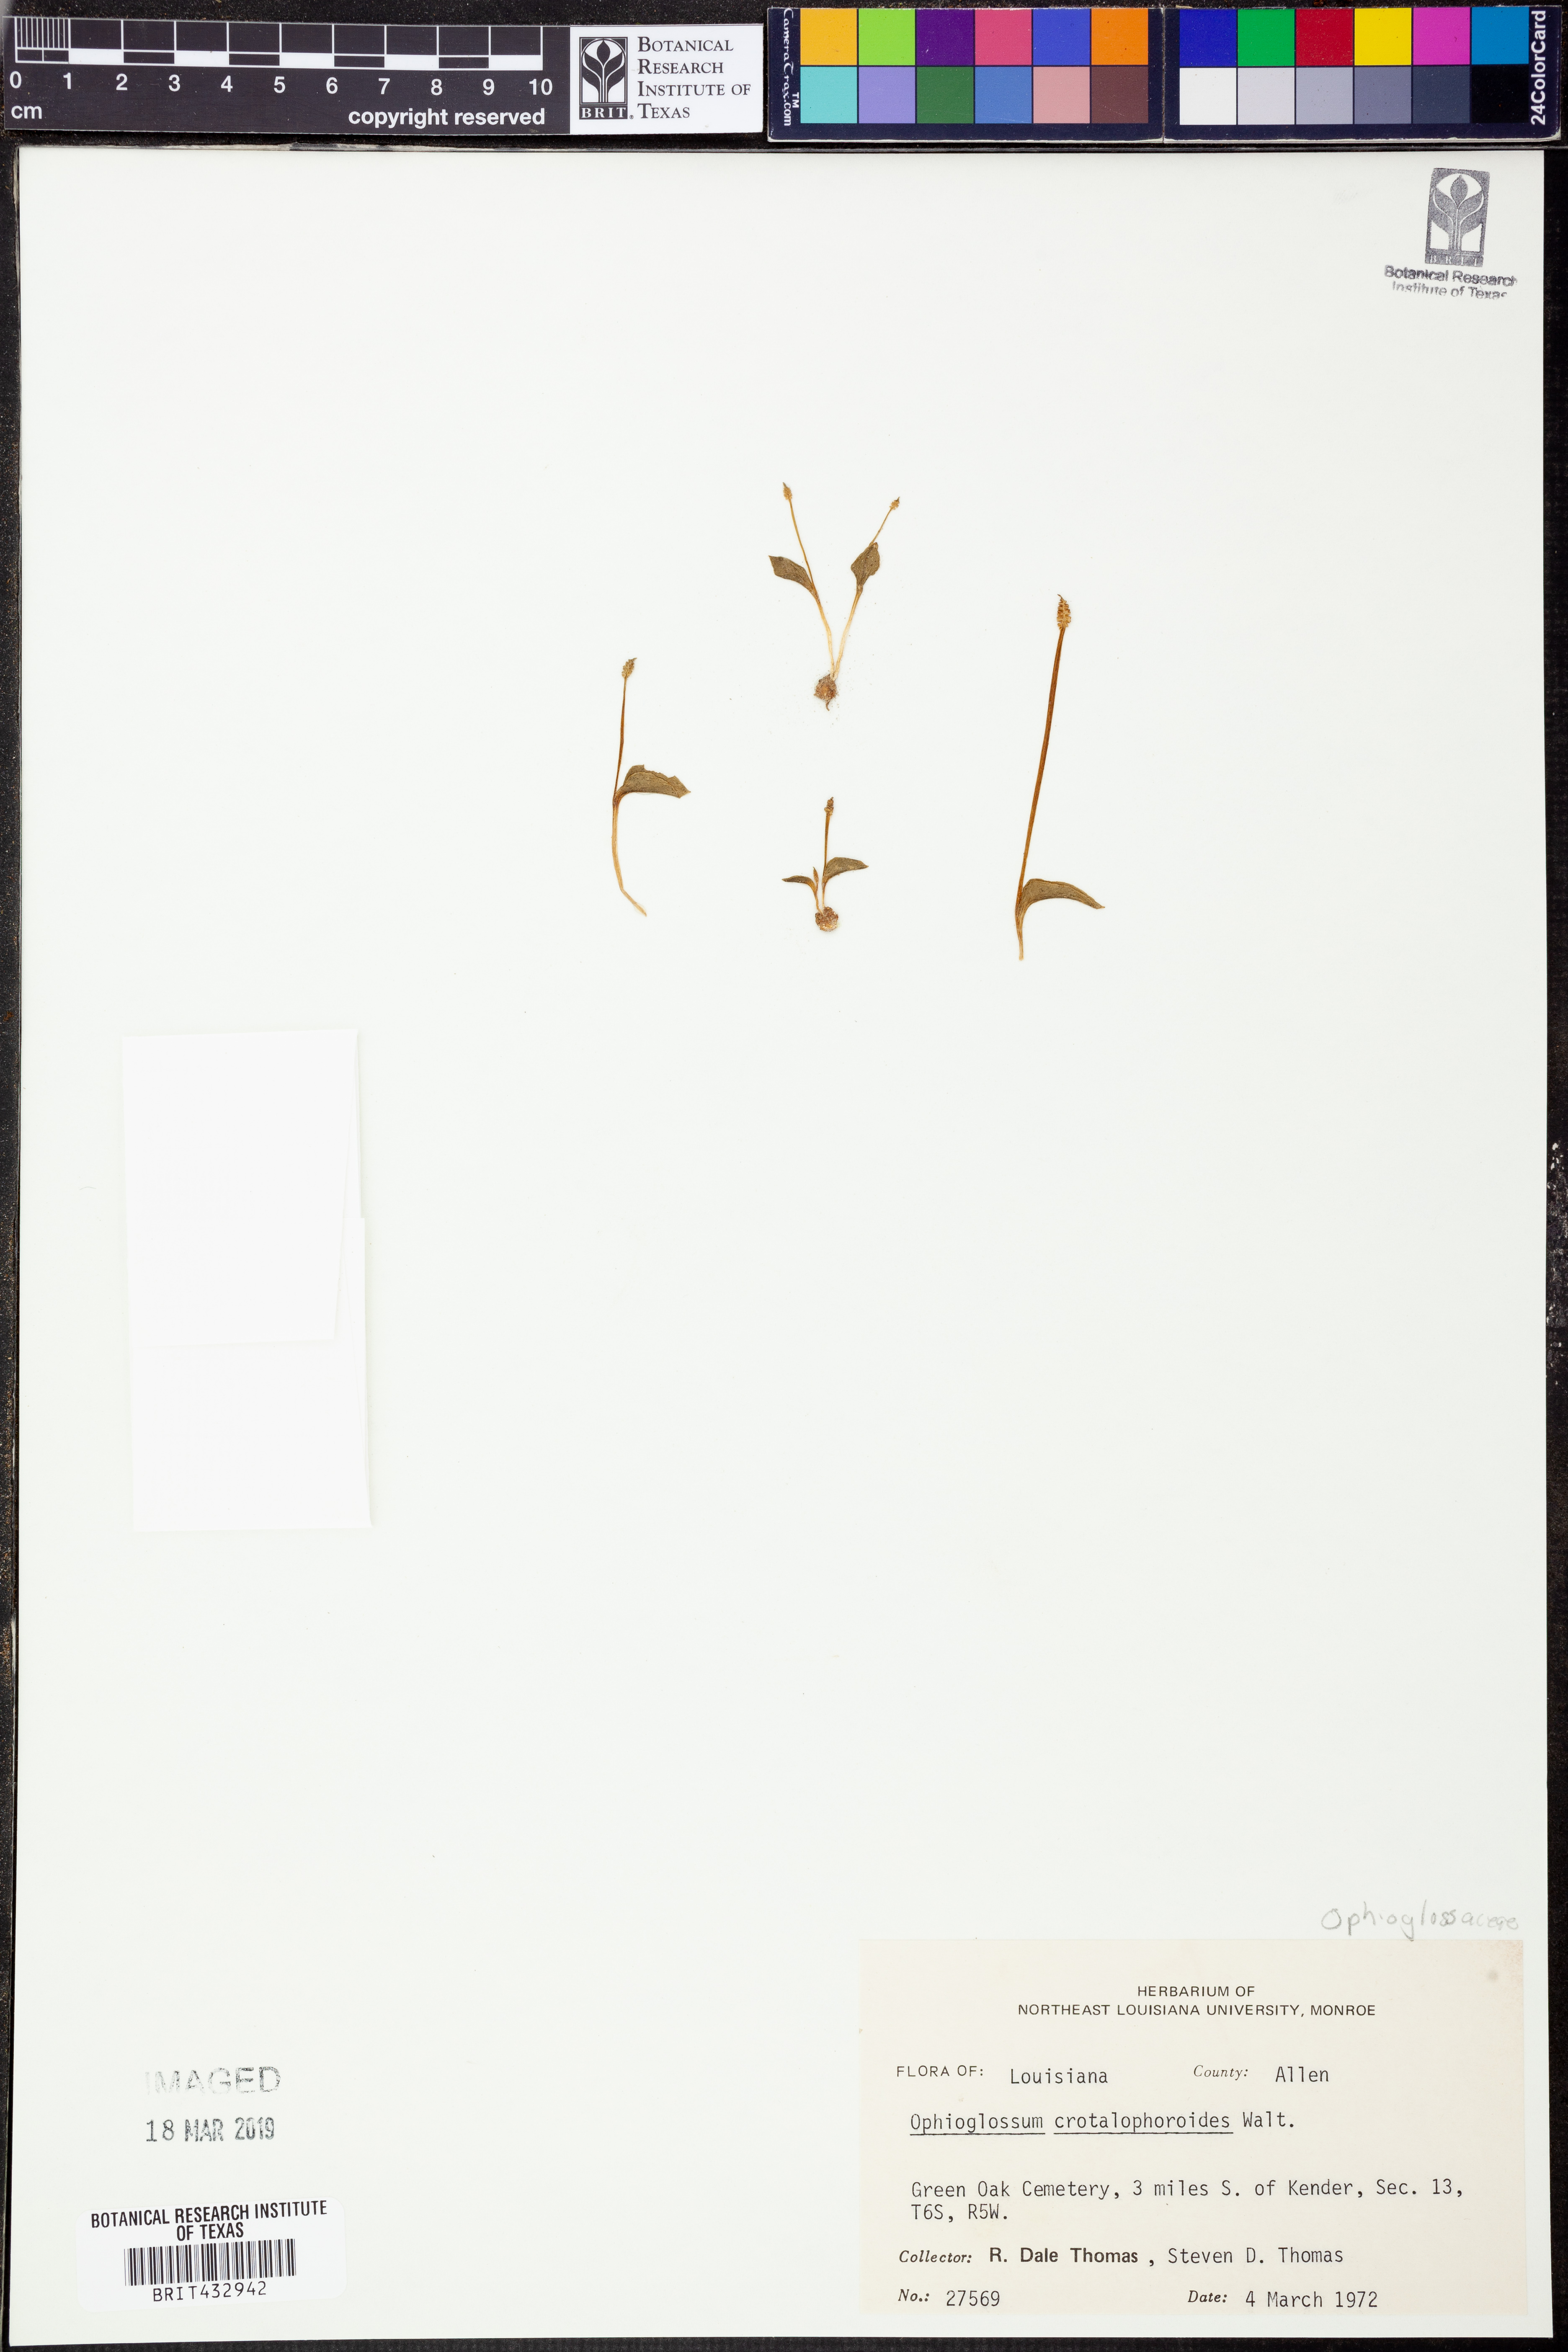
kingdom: Plantae
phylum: Tracheophyta
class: Polypodiopsida
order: Ophioglossales
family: Ophioglossaceae
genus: Ophioglossum
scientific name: Ophioglossum crotalophoroides
